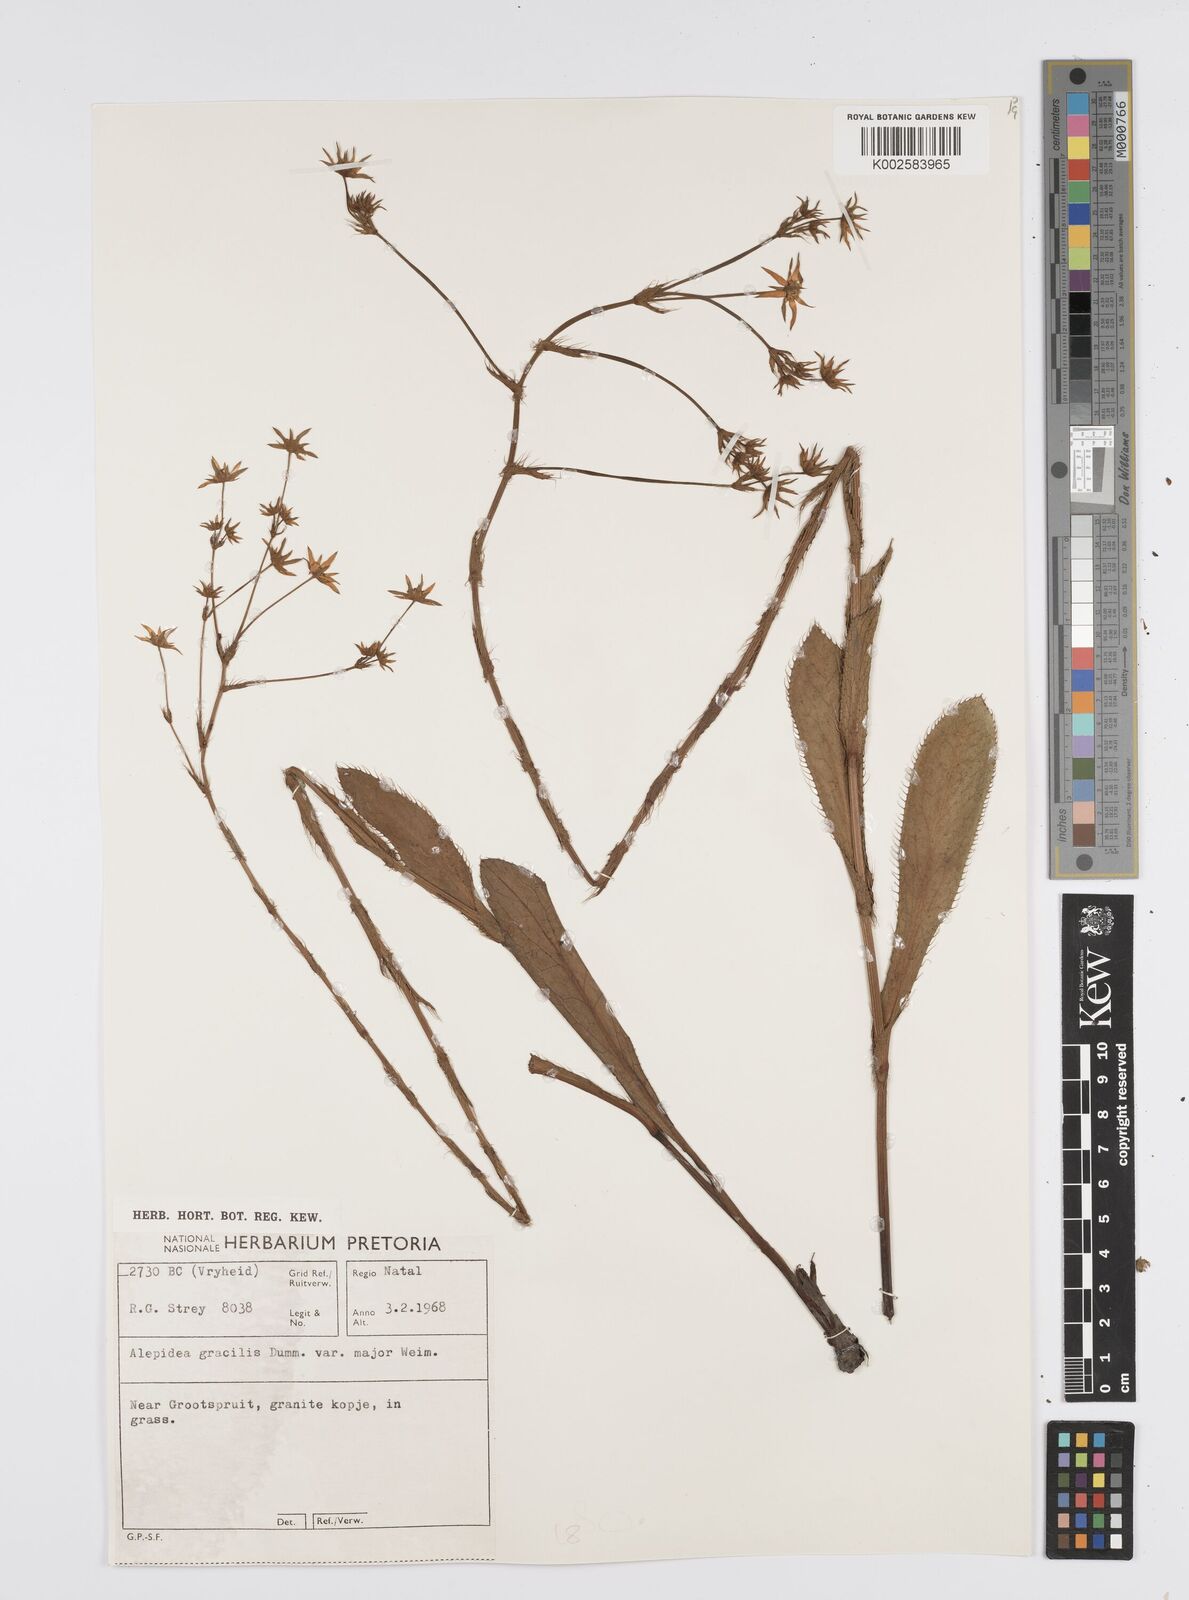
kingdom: Plantae
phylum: Tracheophyta
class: Magnoliopsida
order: Apiales
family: Apiaceae
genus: Alepidea
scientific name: Alepidea
